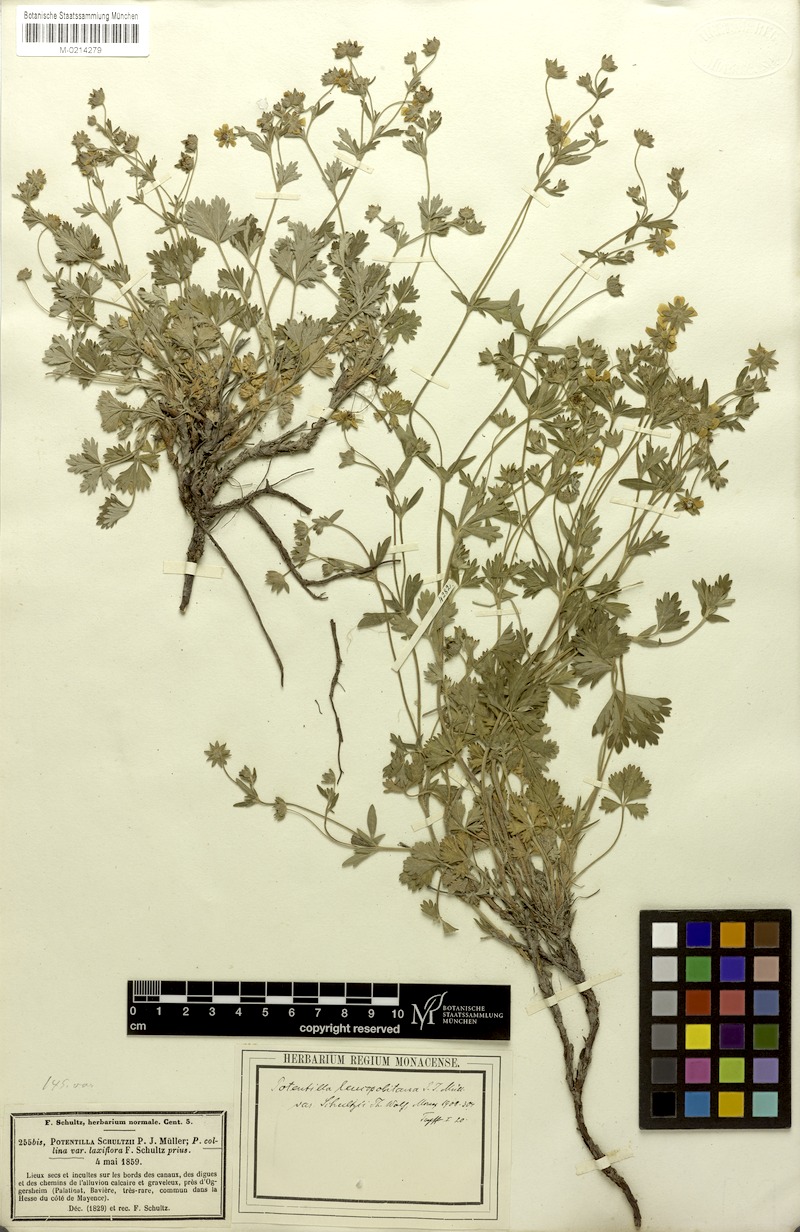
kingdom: Plantae
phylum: Tracheophyta
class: Magnoliopsida
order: Rosales
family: Rosaceae
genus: Potentilla
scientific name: Potentilla collina
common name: Palmleaf cinquefoil
